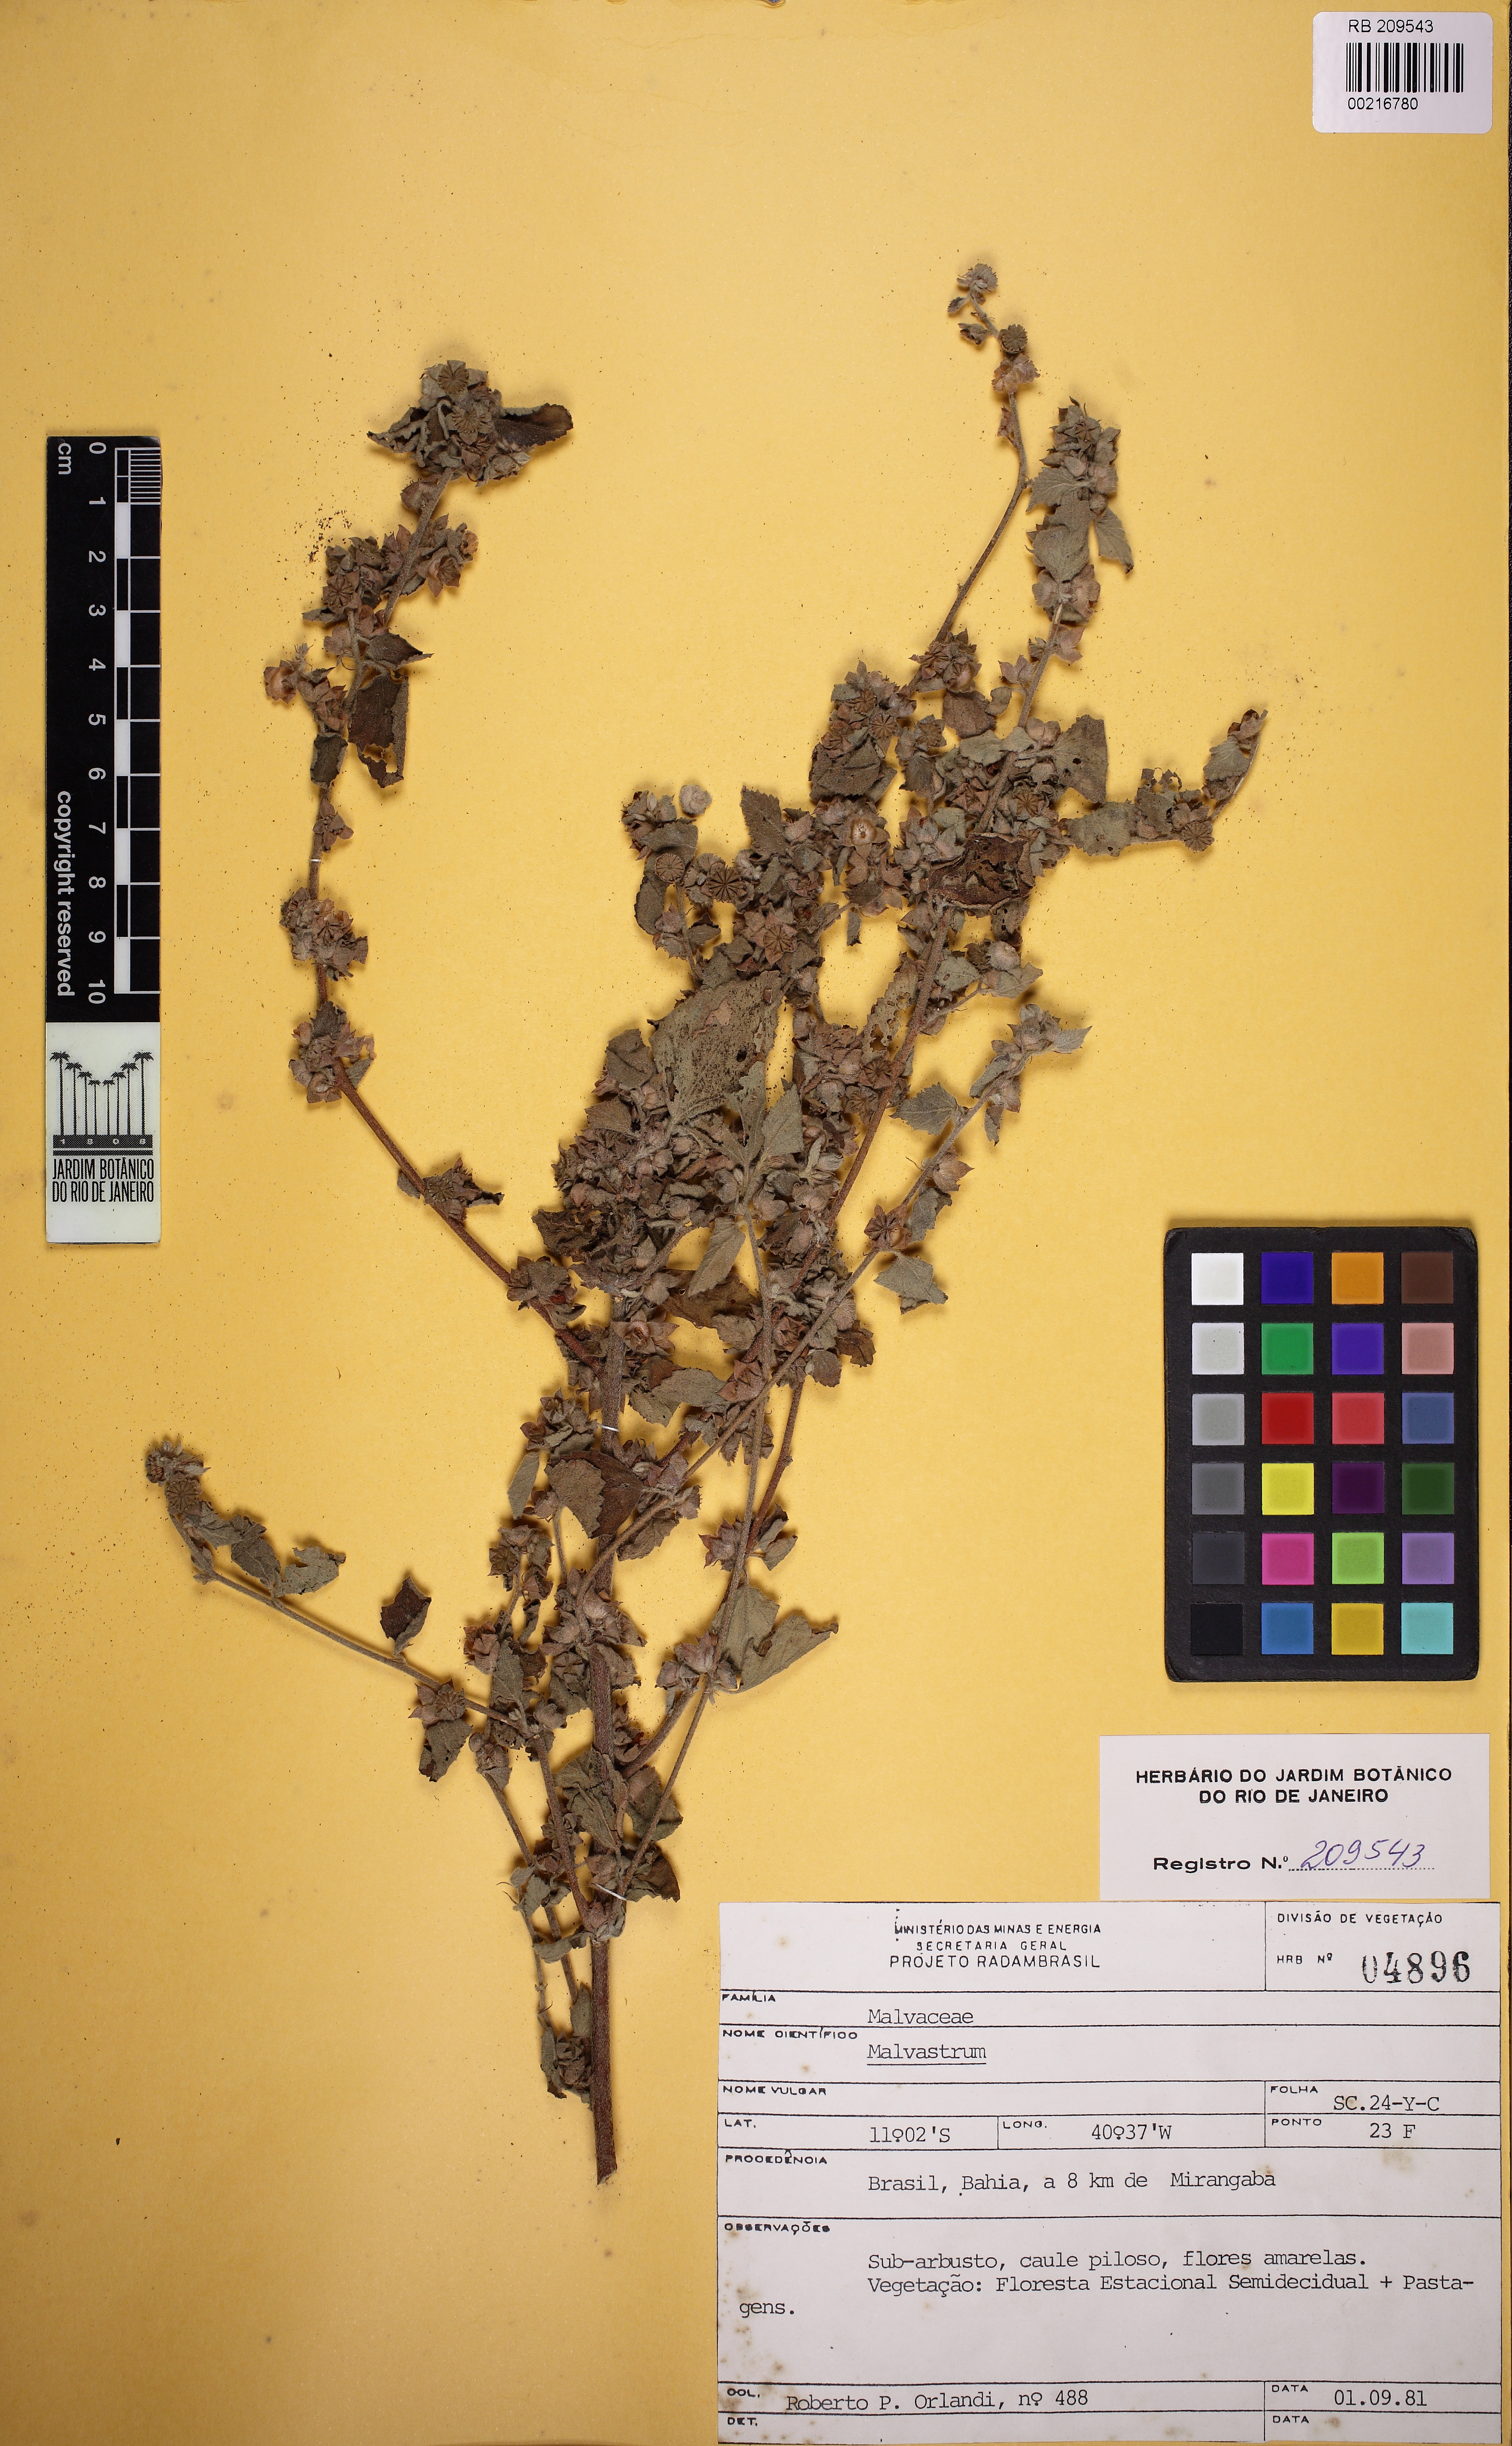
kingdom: Plantae
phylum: Tracheophyta
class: Magnoliopsida
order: Malvales
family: Malvaceae
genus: Malvastrum
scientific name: Malvastrum
